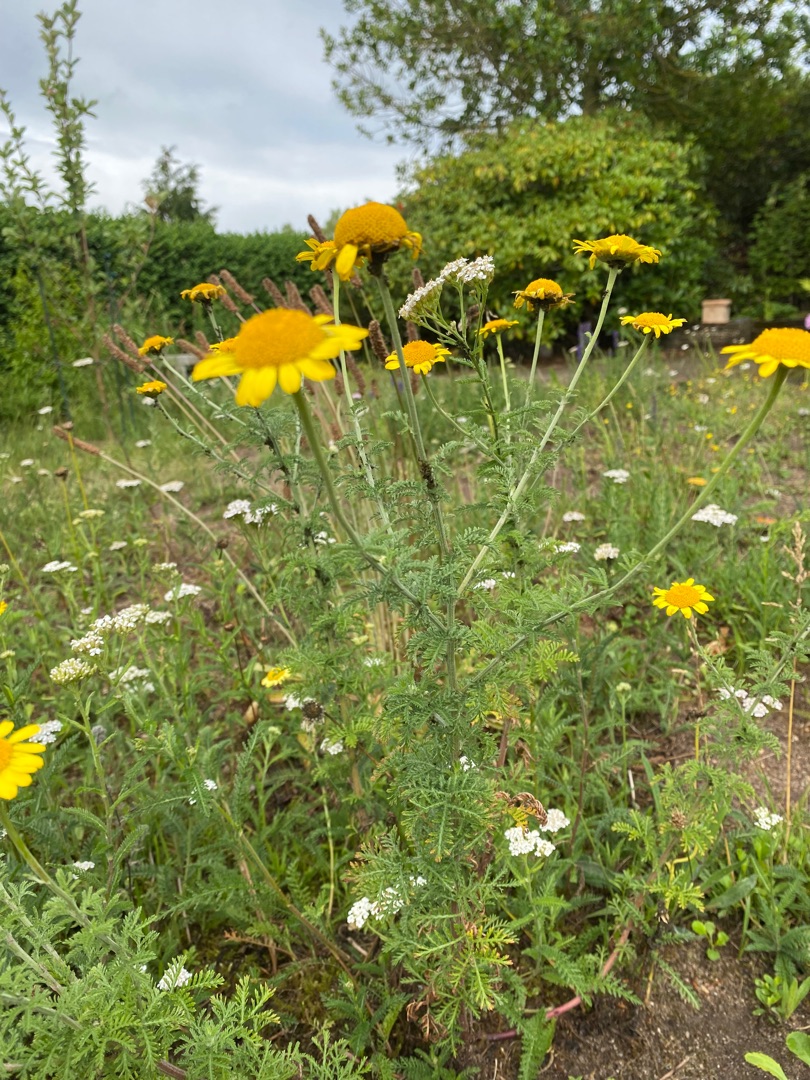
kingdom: Plantae
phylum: Tracheophyta
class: Magnoliopsida
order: Asterales
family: Asteraceae
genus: Cota
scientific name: Cota tinctoria
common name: Farve-gåseurt
